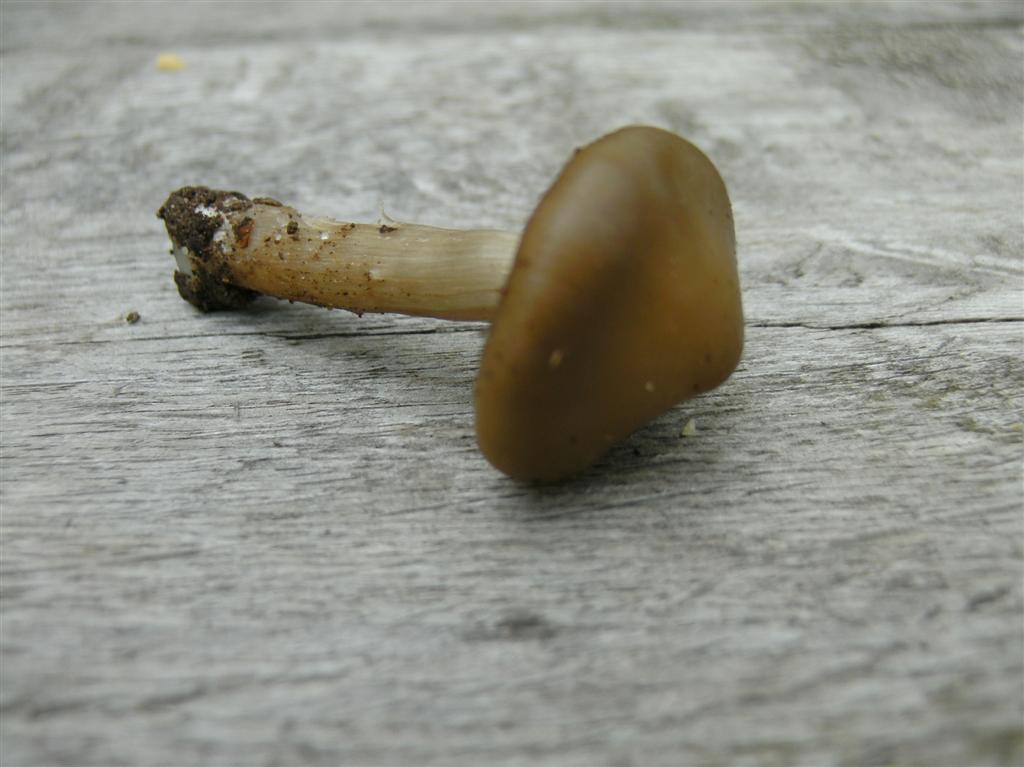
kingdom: Fungi
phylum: Basidiomycota
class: Agaricomycetes
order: Agaricales
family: Entolomataceae
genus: Entoloma
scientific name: Entoloma aprile
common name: maj-rødblad
